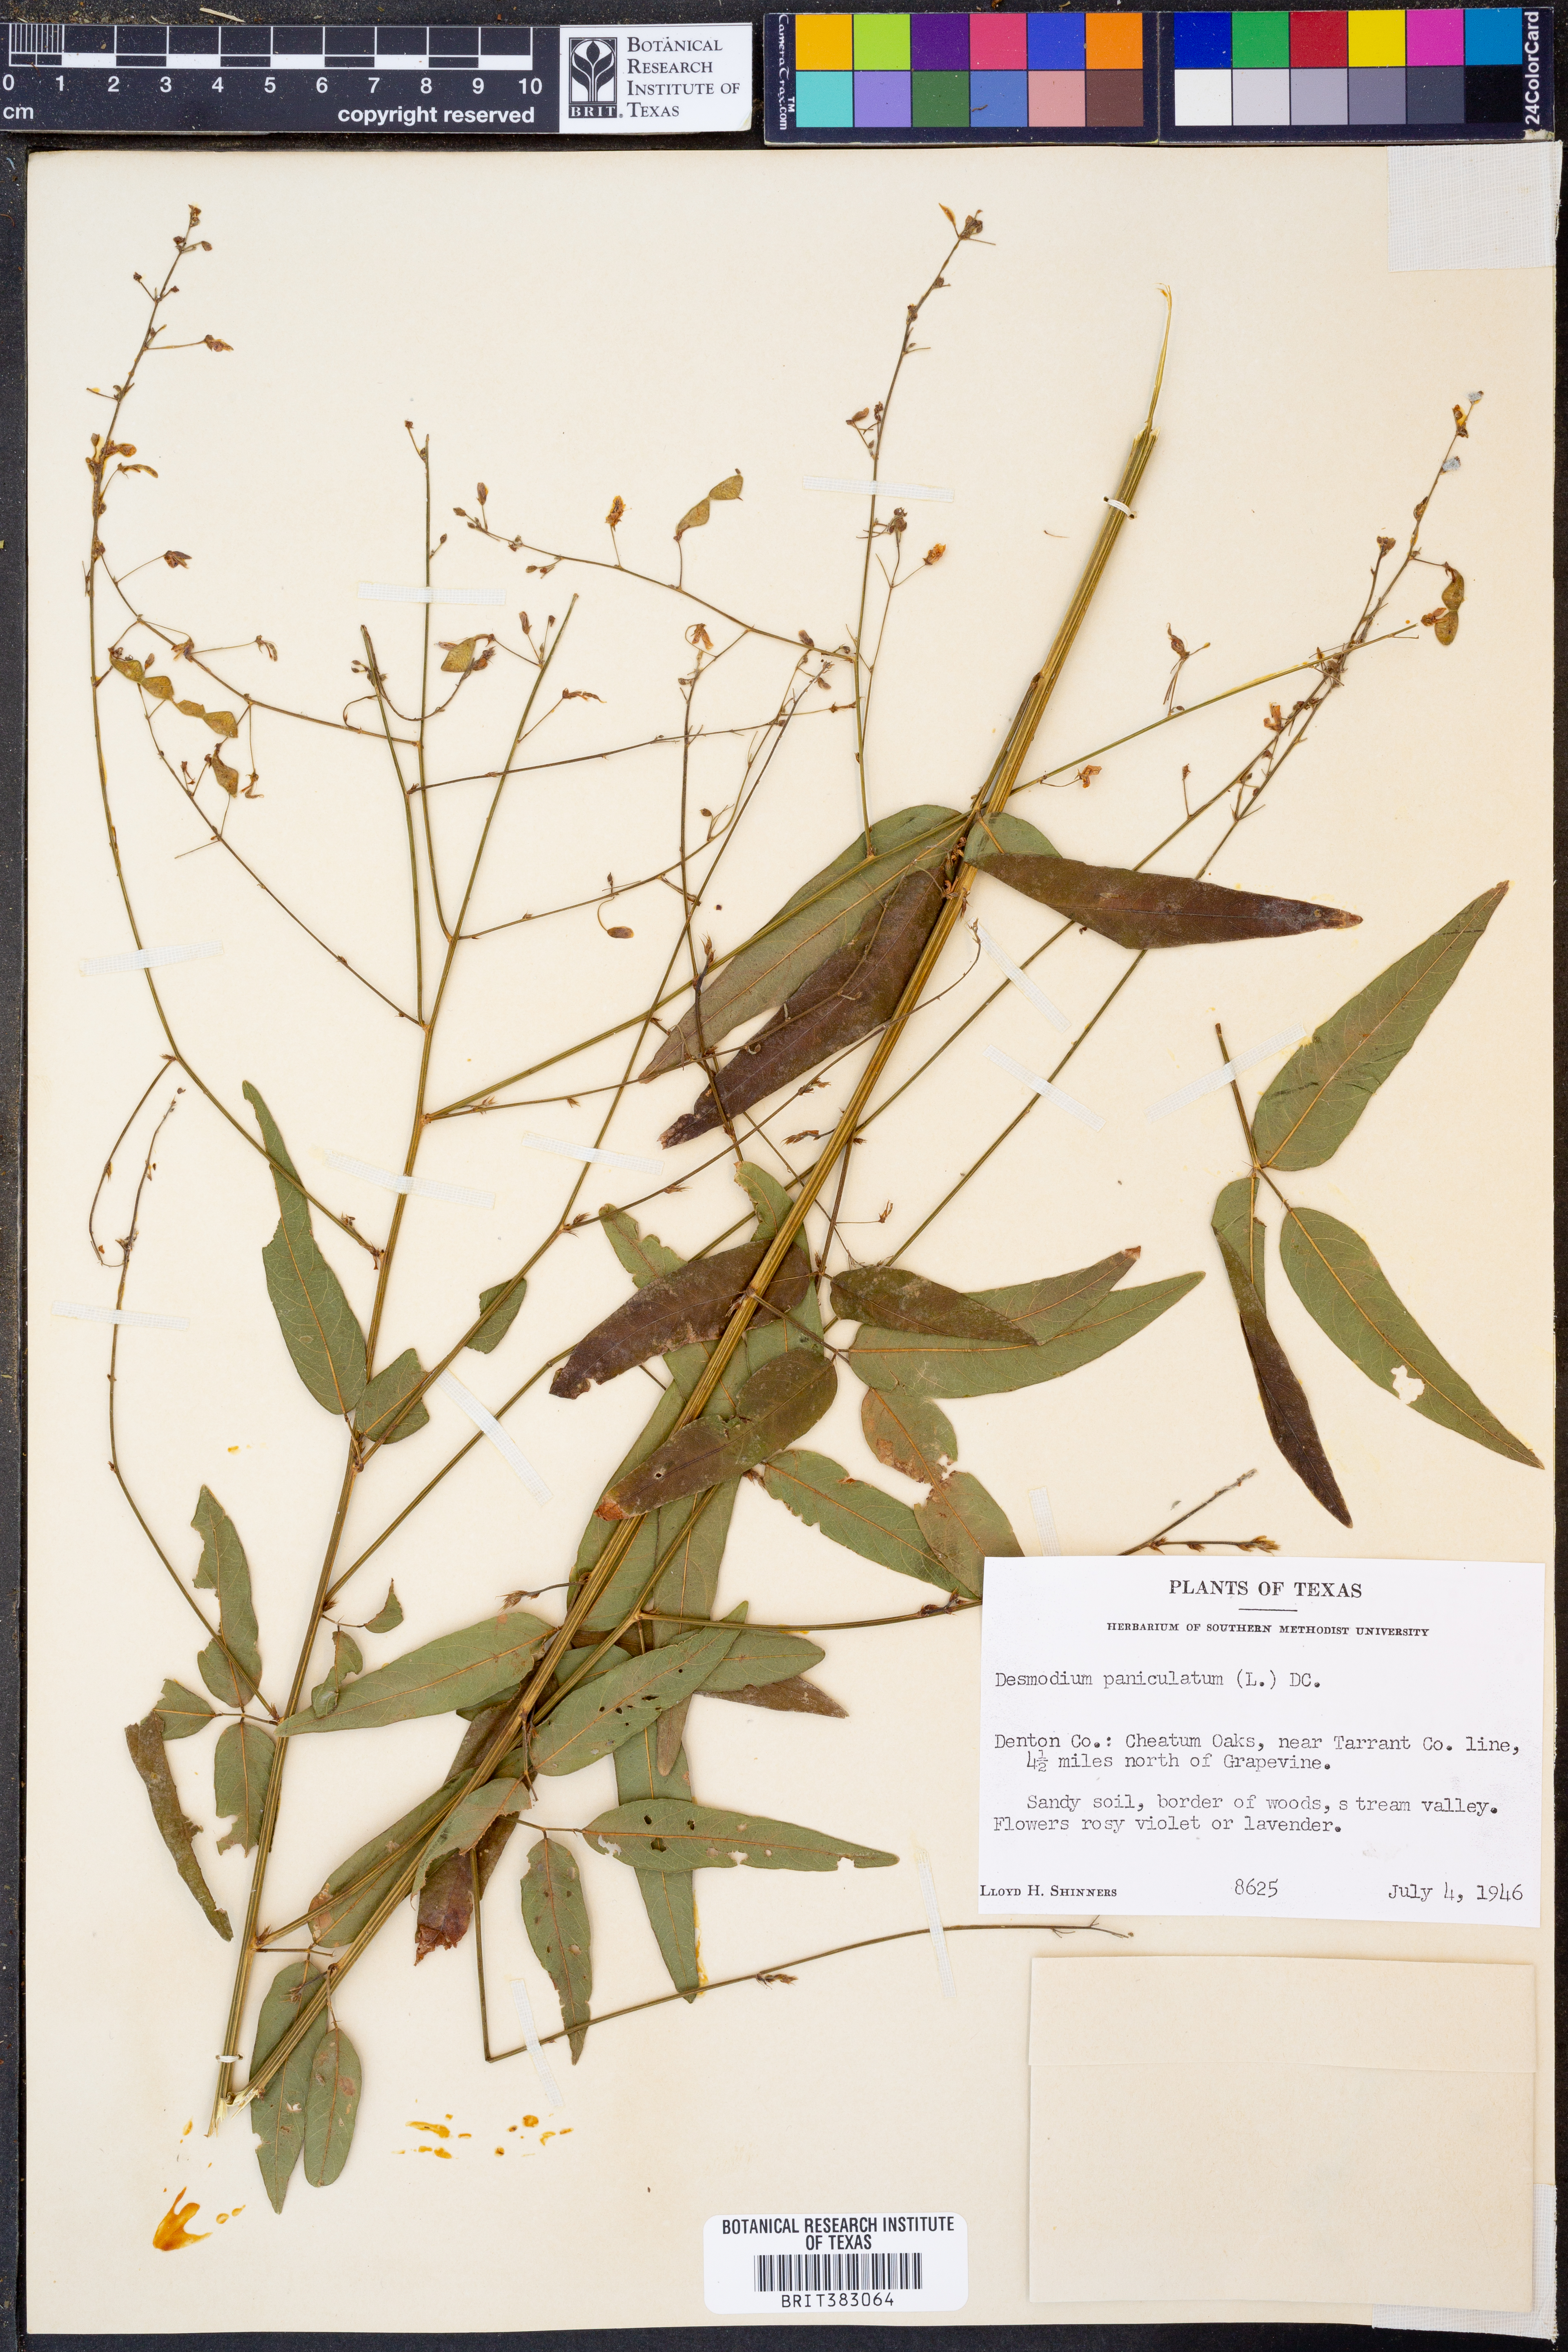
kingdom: Plantae
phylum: Tracheophyta
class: Magnoliopsida
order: Fabales
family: Fabaceae
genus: Desmodium
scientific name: Desmodium paniculatum
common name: Panicled tick-clover
